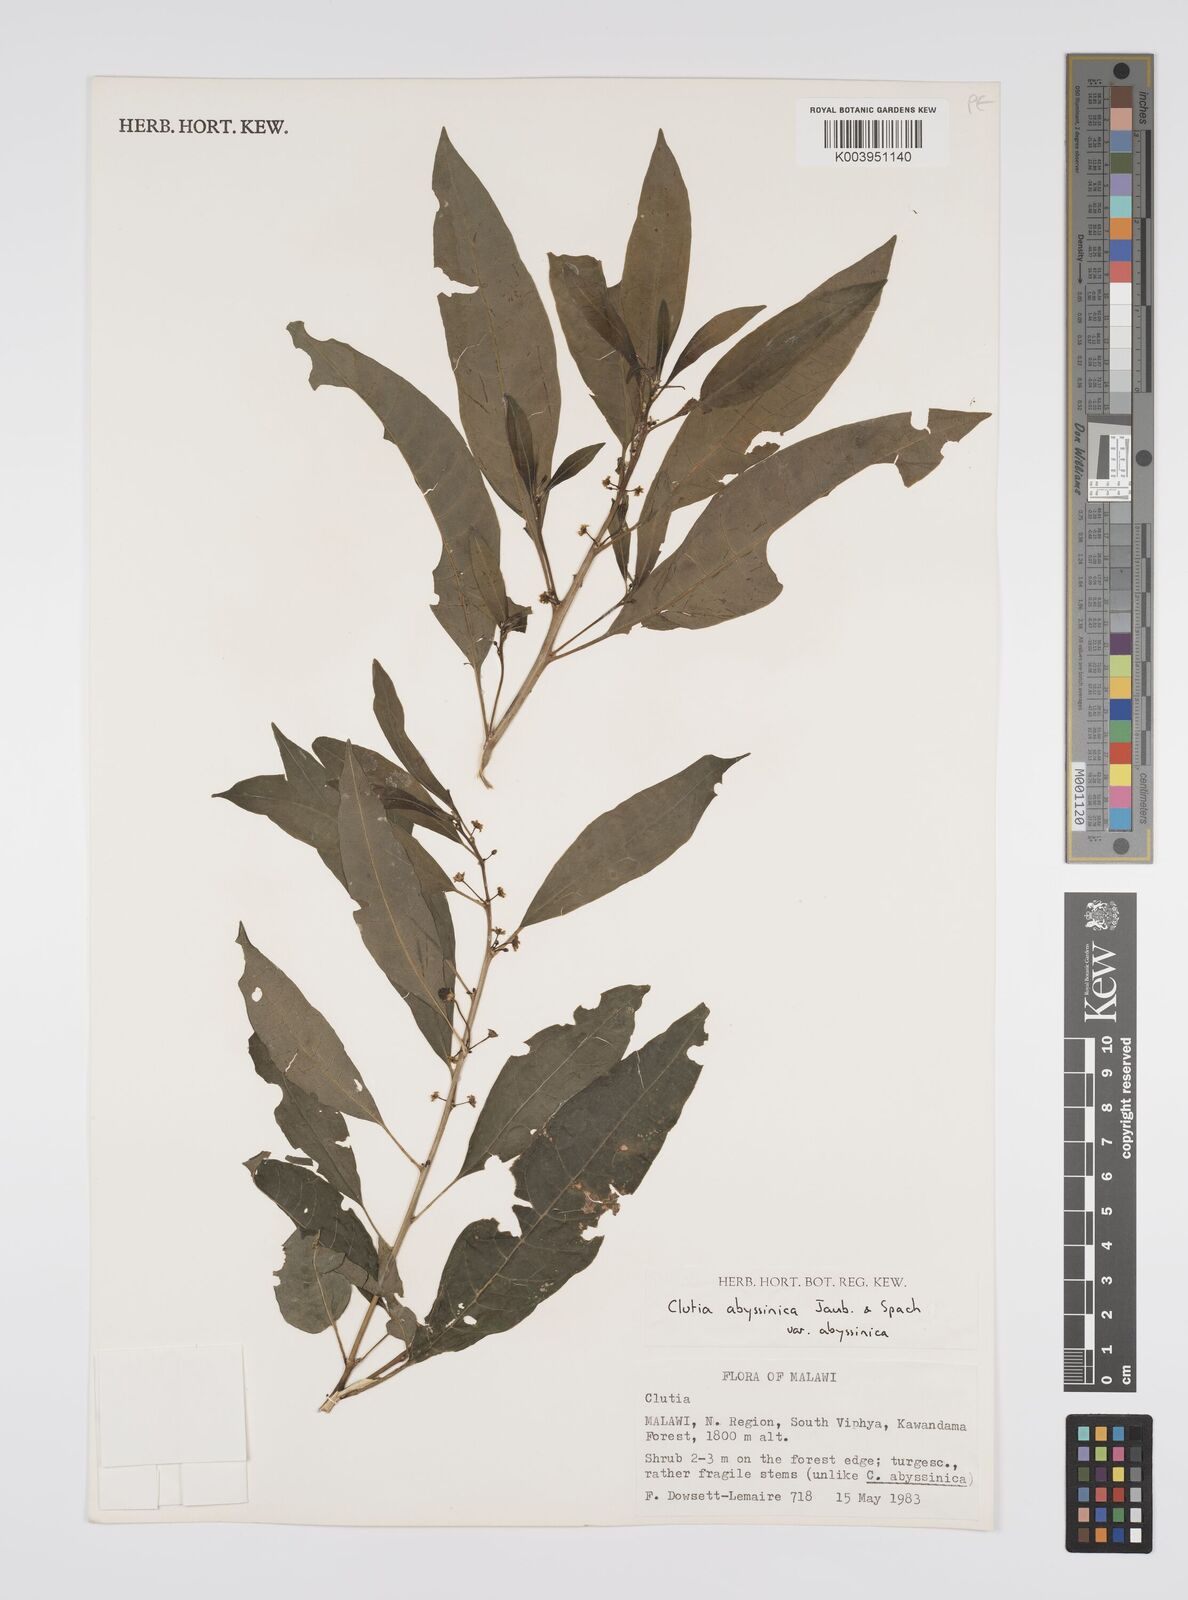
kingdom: Plantae
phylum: Tracheophyta
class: Magnoliopsida
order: Malpighiales
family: Peraceae
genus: Clutia
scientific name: Clutia abyssinica
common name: Large lightning bush
